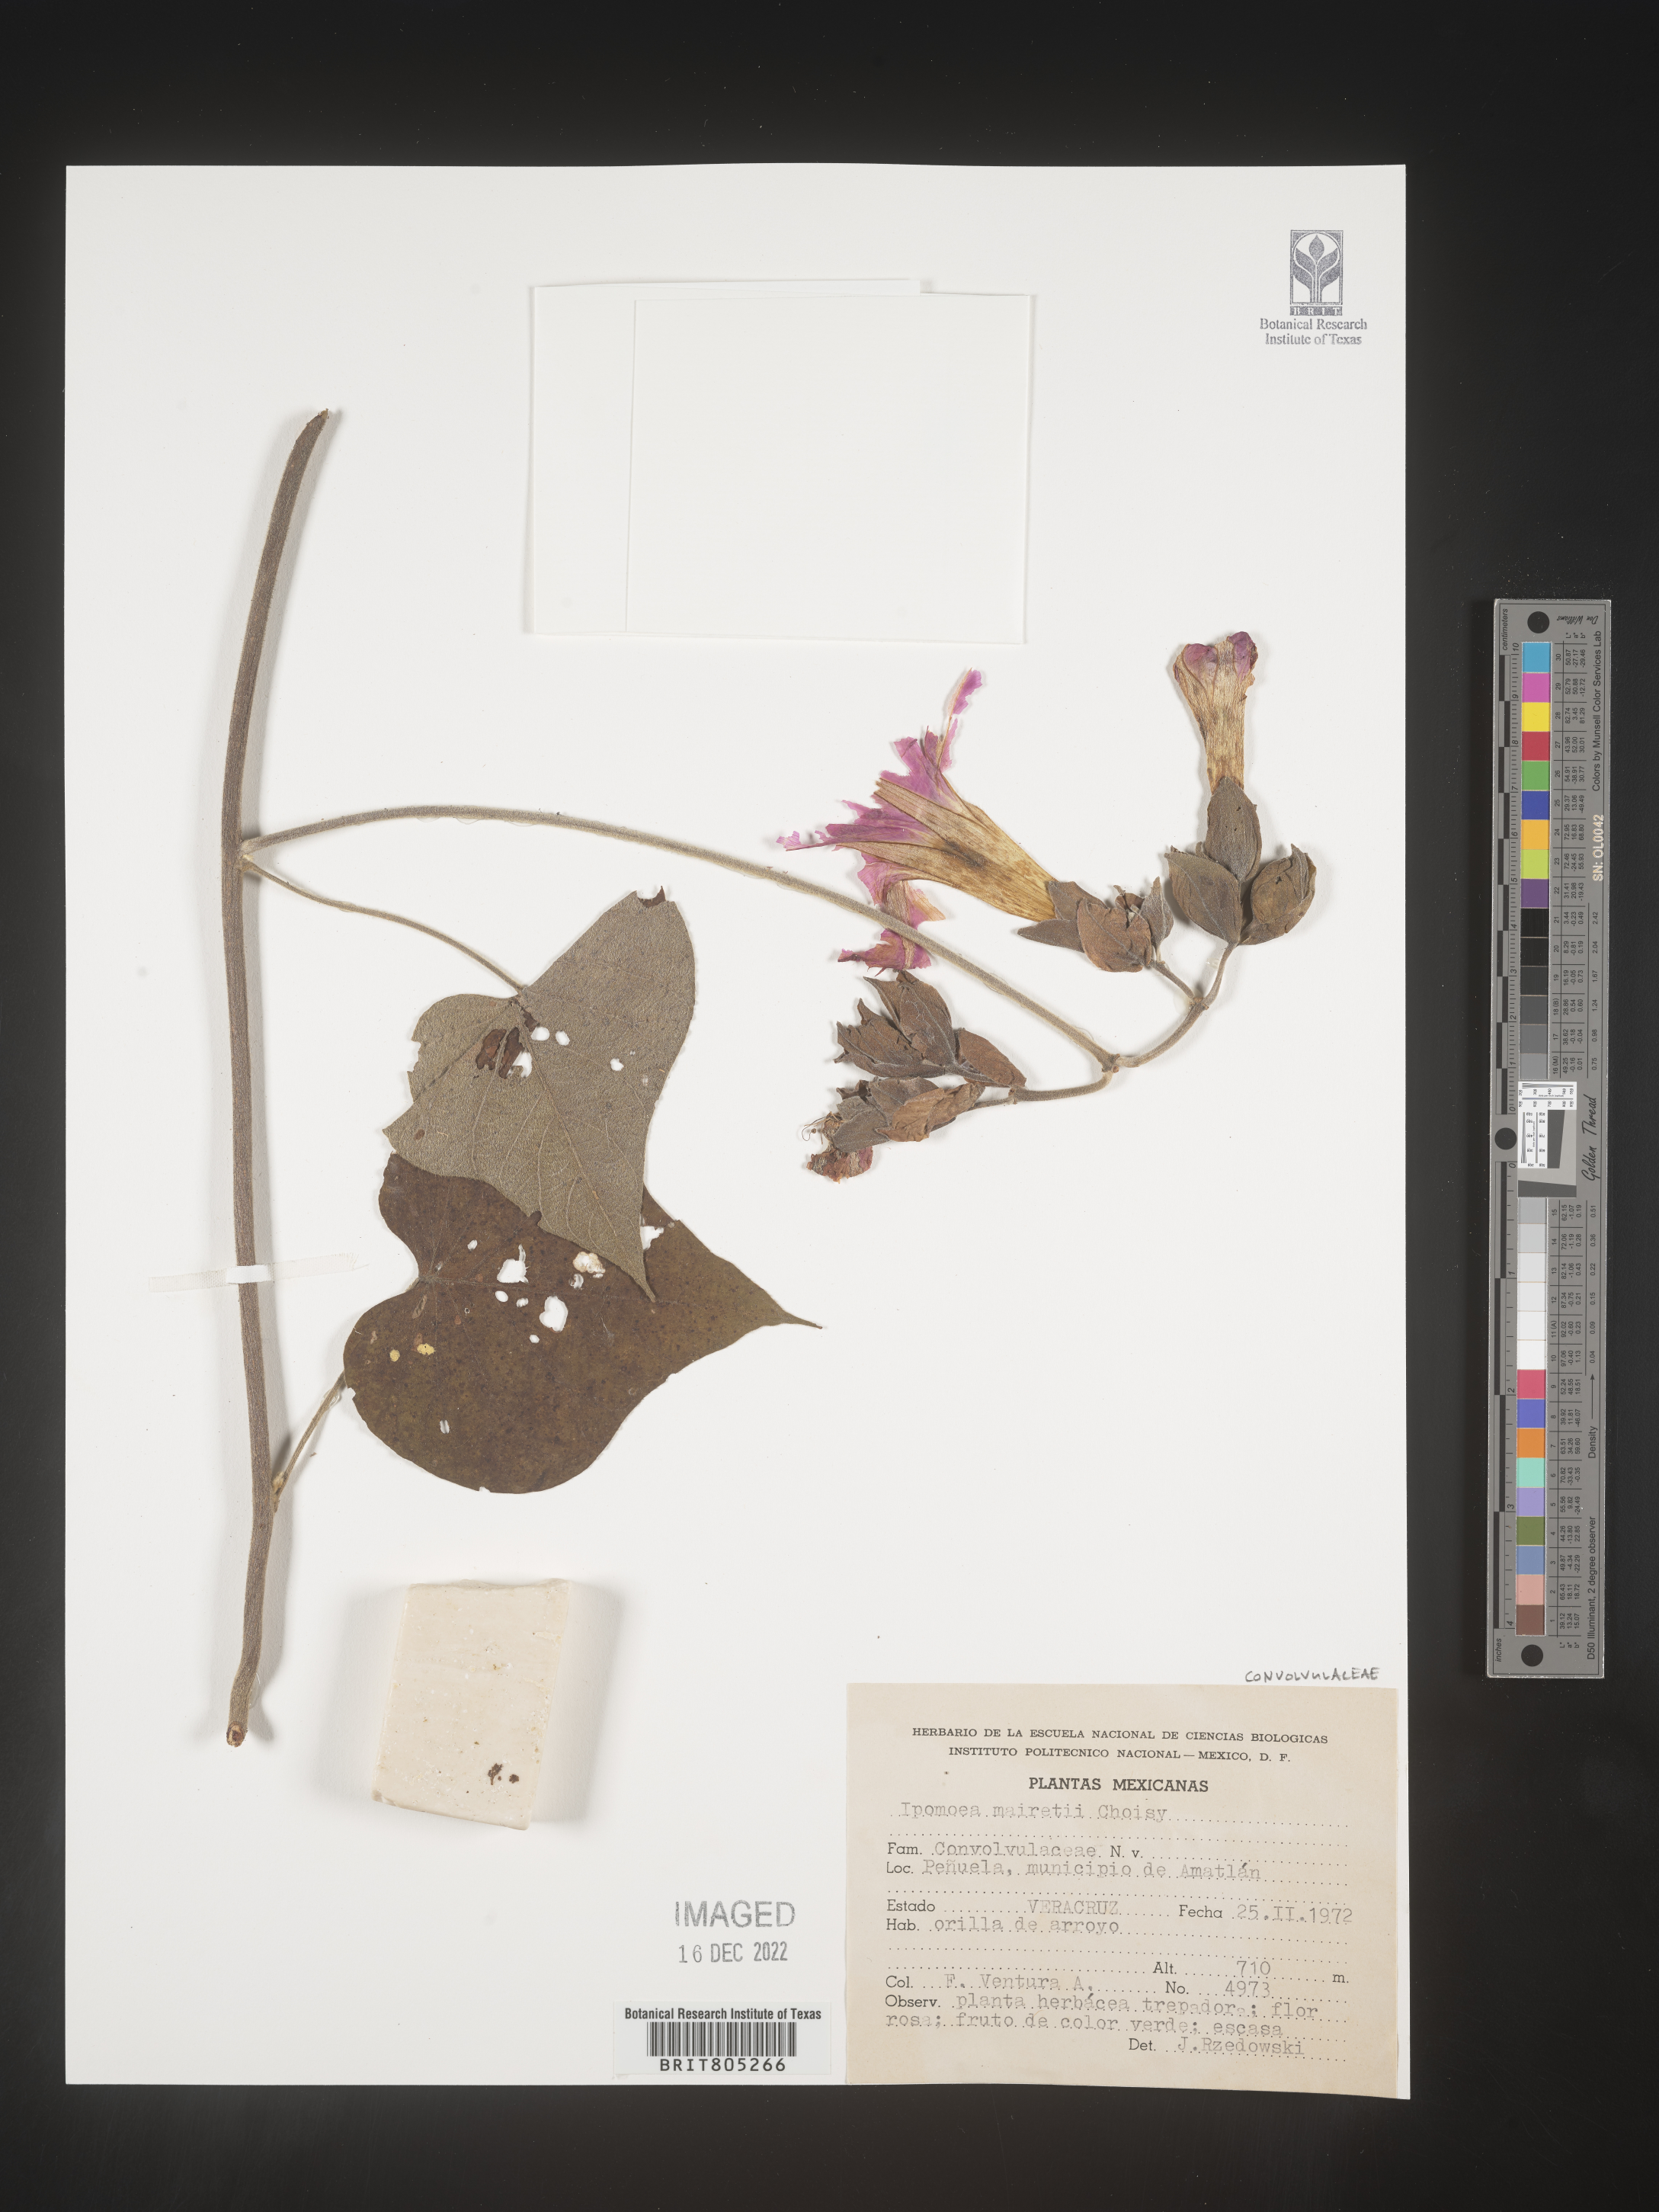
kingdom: Plantae
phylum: Tracheophyta
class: Magnoliopsida
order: Solanales
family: Convolvulaceae
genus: Ipomoea
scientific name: Ipomoea
